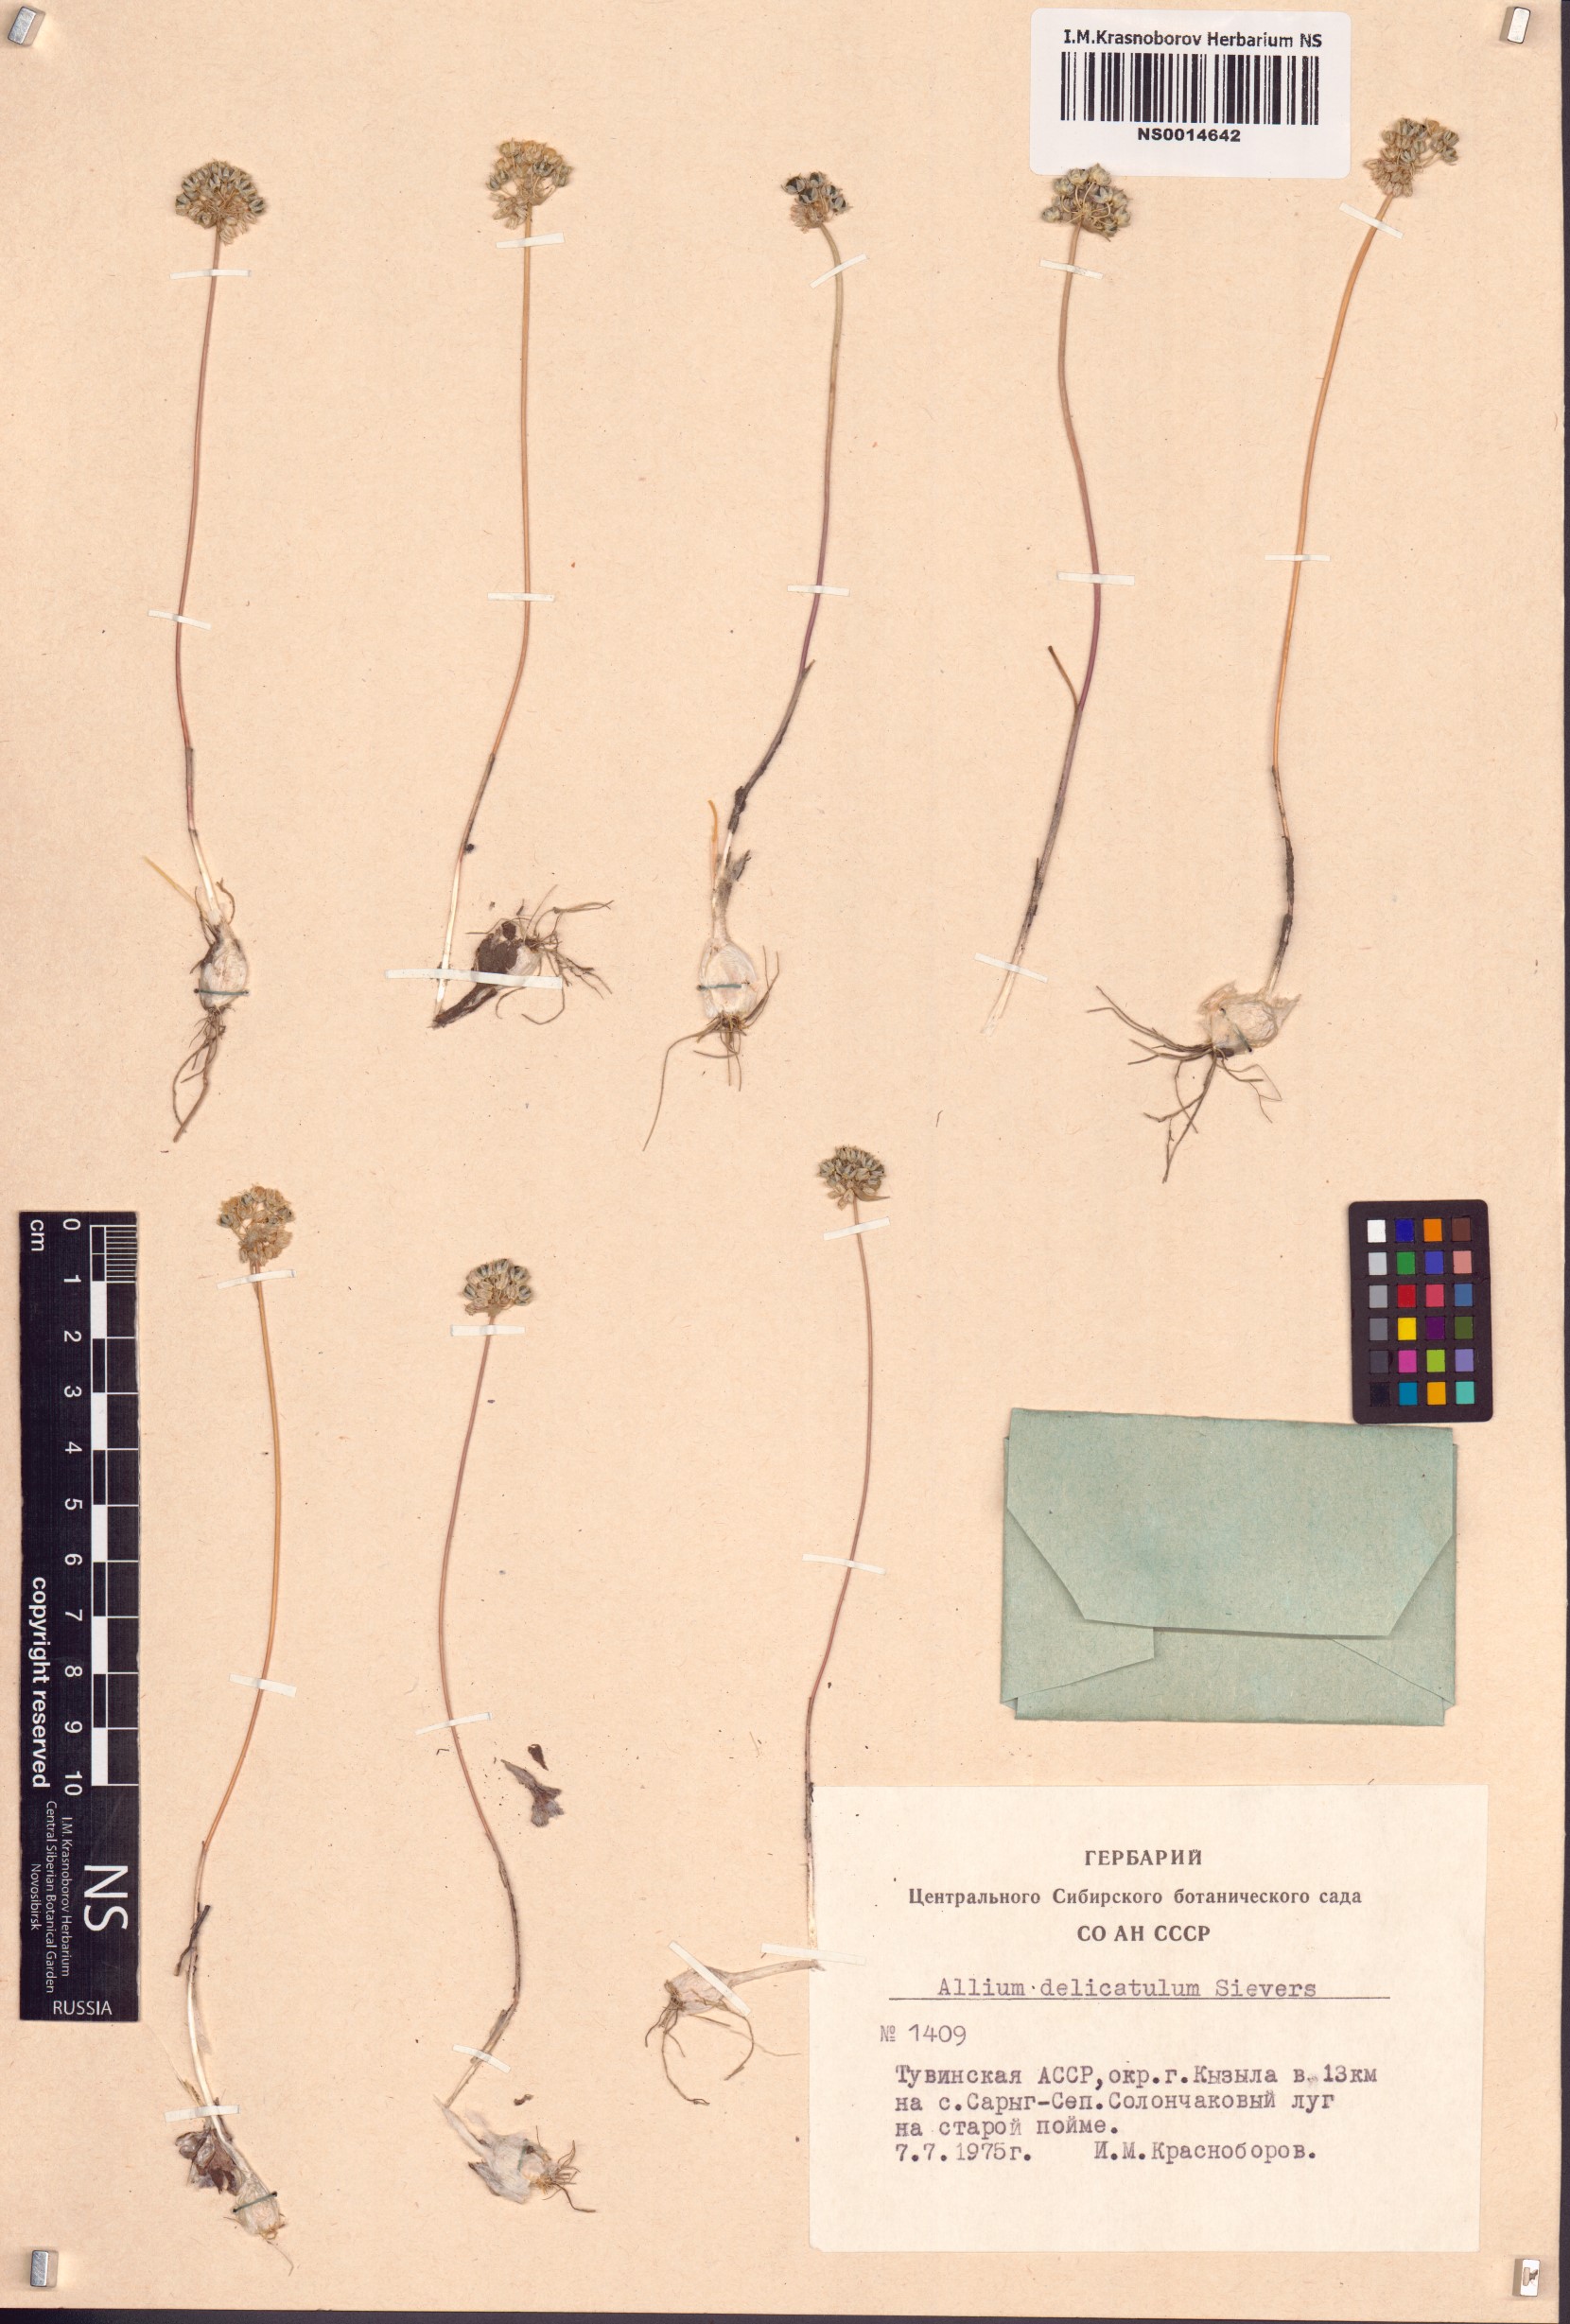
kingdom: Plantae
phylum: Tracheophyta
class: Liliopsida
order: Asparagales
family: Amaryllidaceae
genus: Allium
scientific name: Allium delicatulum
